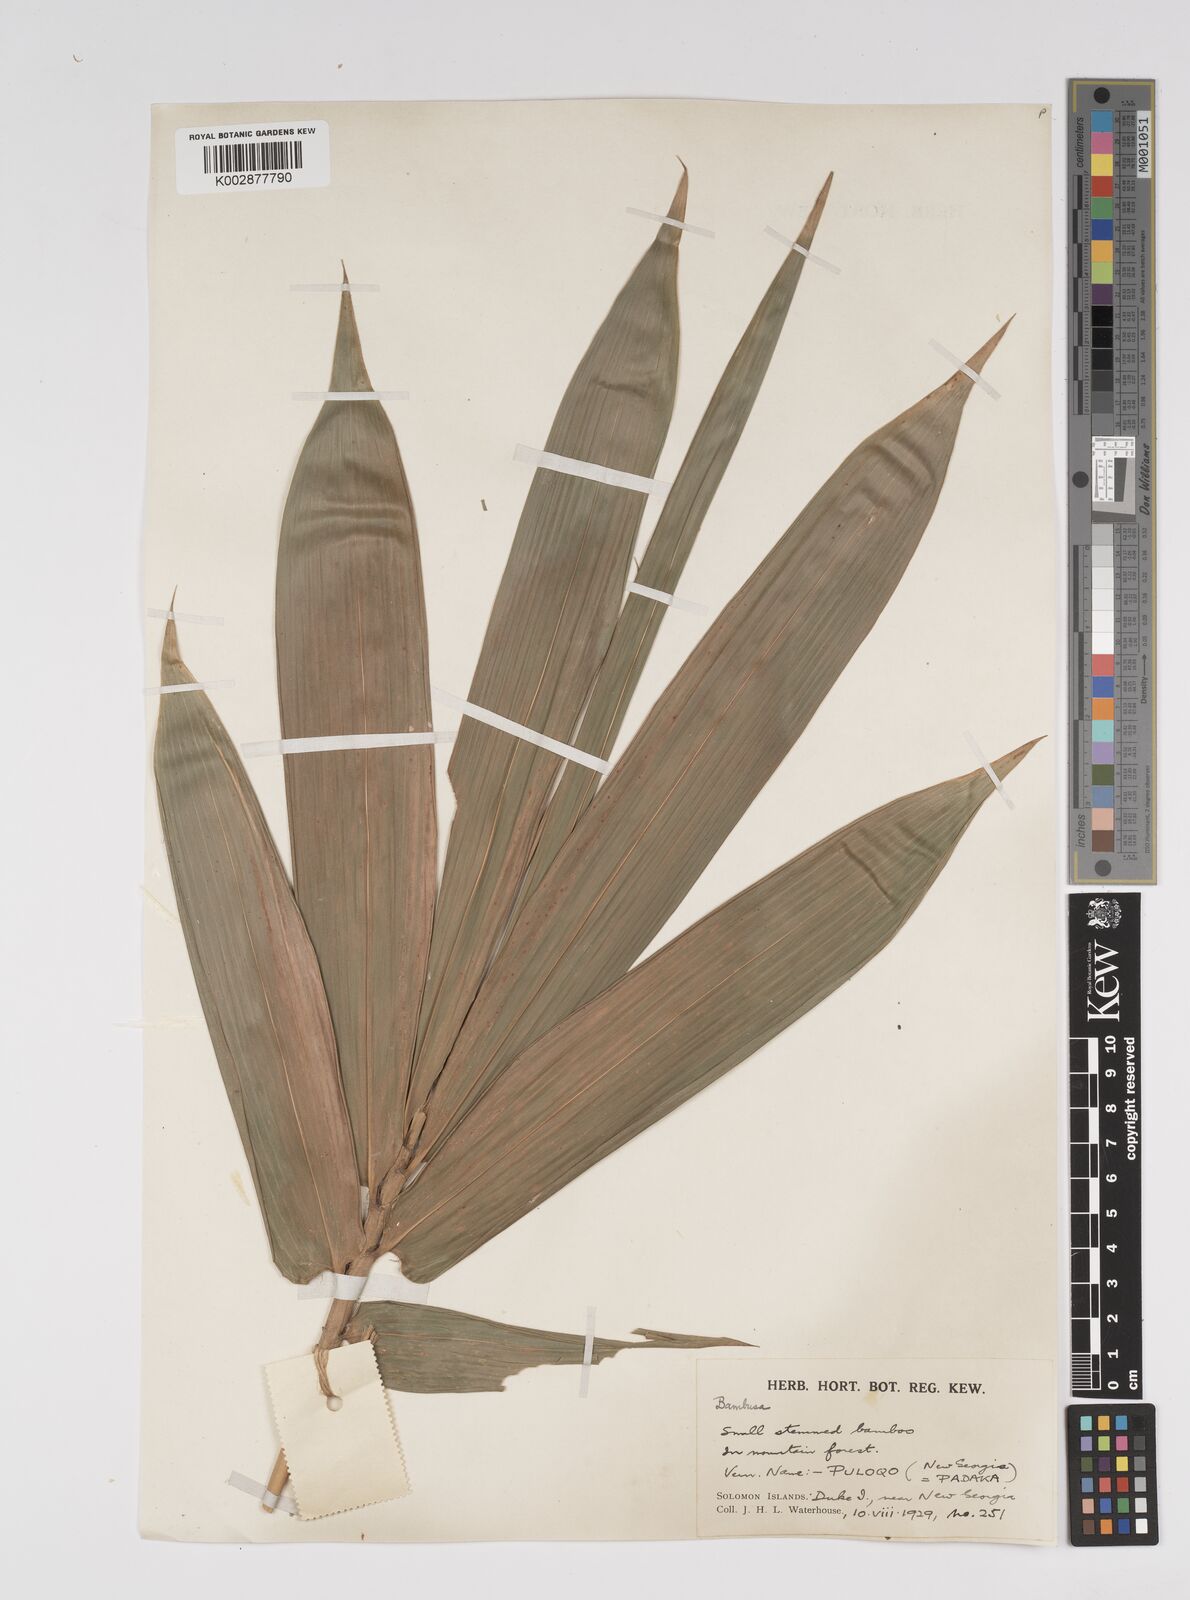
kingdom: Plantae
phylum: Tracheophyta
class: Liliopsida
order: Poales
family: Poaceae
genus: Bambusa
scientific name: Bambusa
